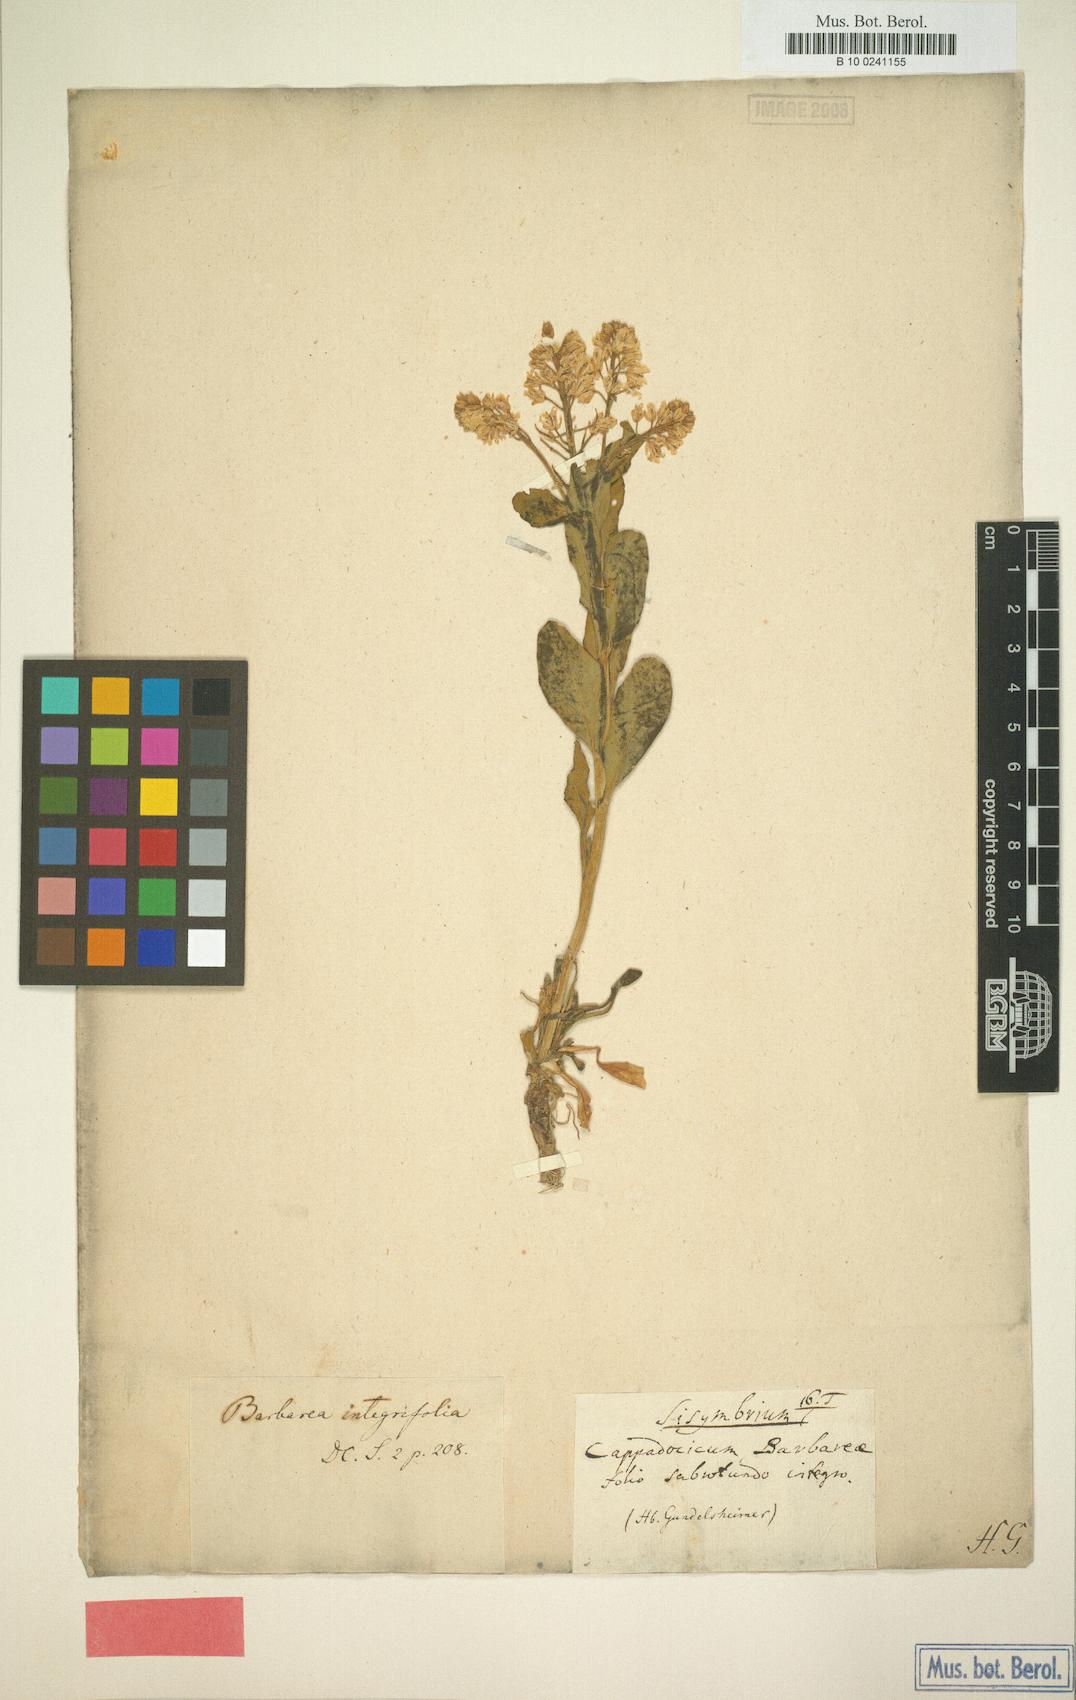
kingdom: Plantae
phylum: Tracheophyta
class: Magnoliopsida
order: Brassicales
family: Brassicaceae
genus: Barbarea
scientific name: Barbarea integrifolia
